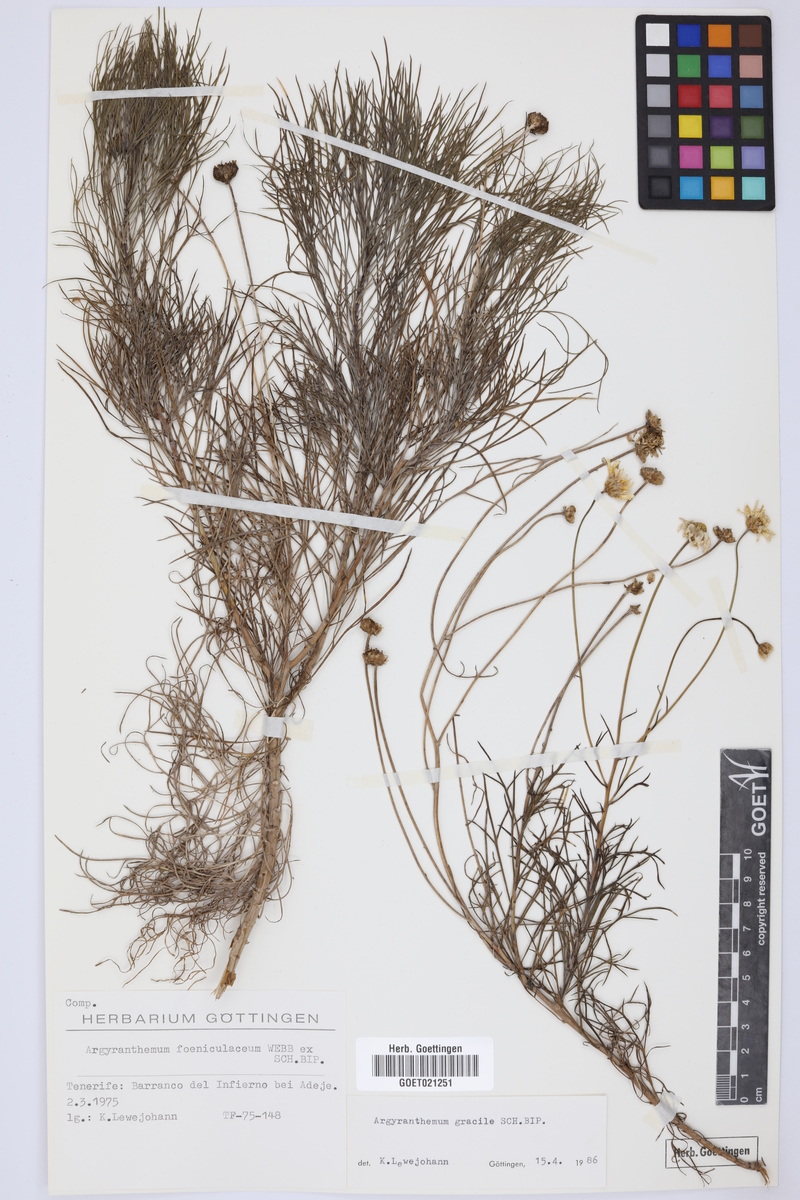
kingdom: Plantae
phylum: Tracheophyta
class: Magnoliopsida
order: Asterales
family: Asteraceae
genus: Argyranthemum
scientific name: Argyranthemum gracile
